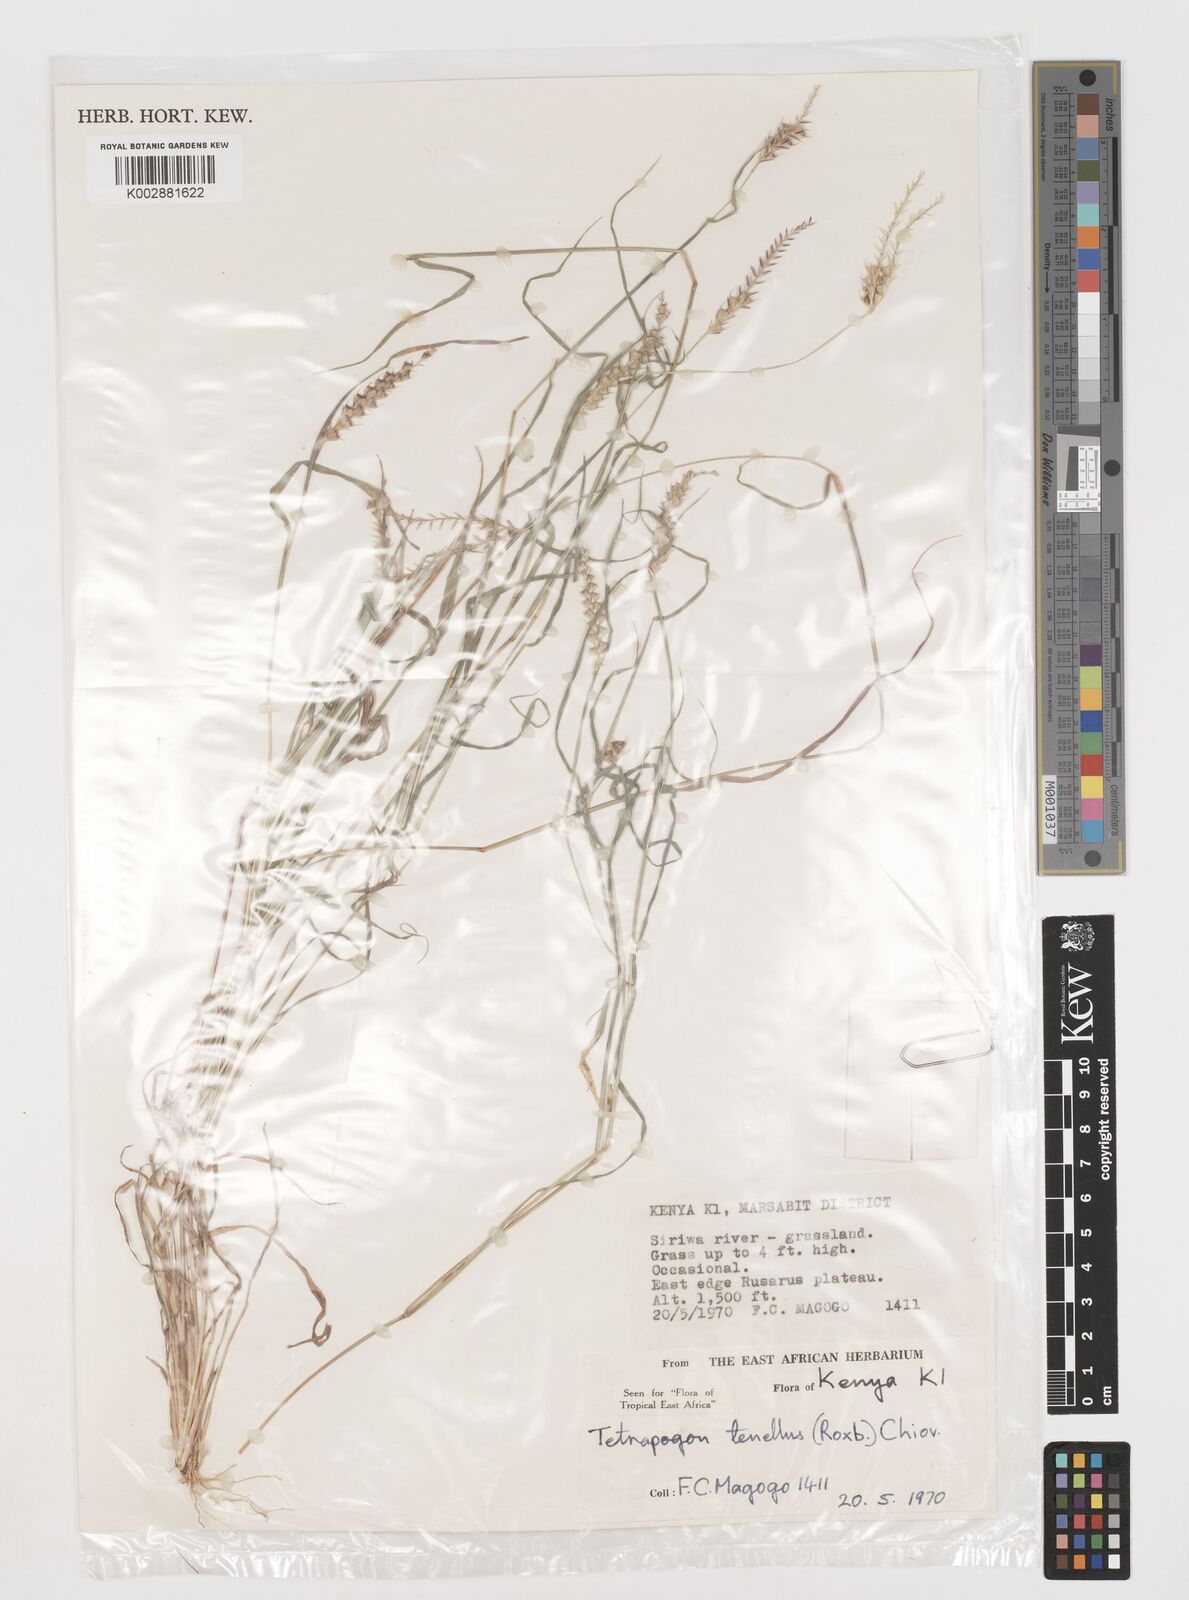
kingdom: Plantae
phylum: Tracheophyta
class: Liliopsida
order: Poales
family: Poaceae
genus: Tetrapogon
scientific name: Tetrapogon tenellus
